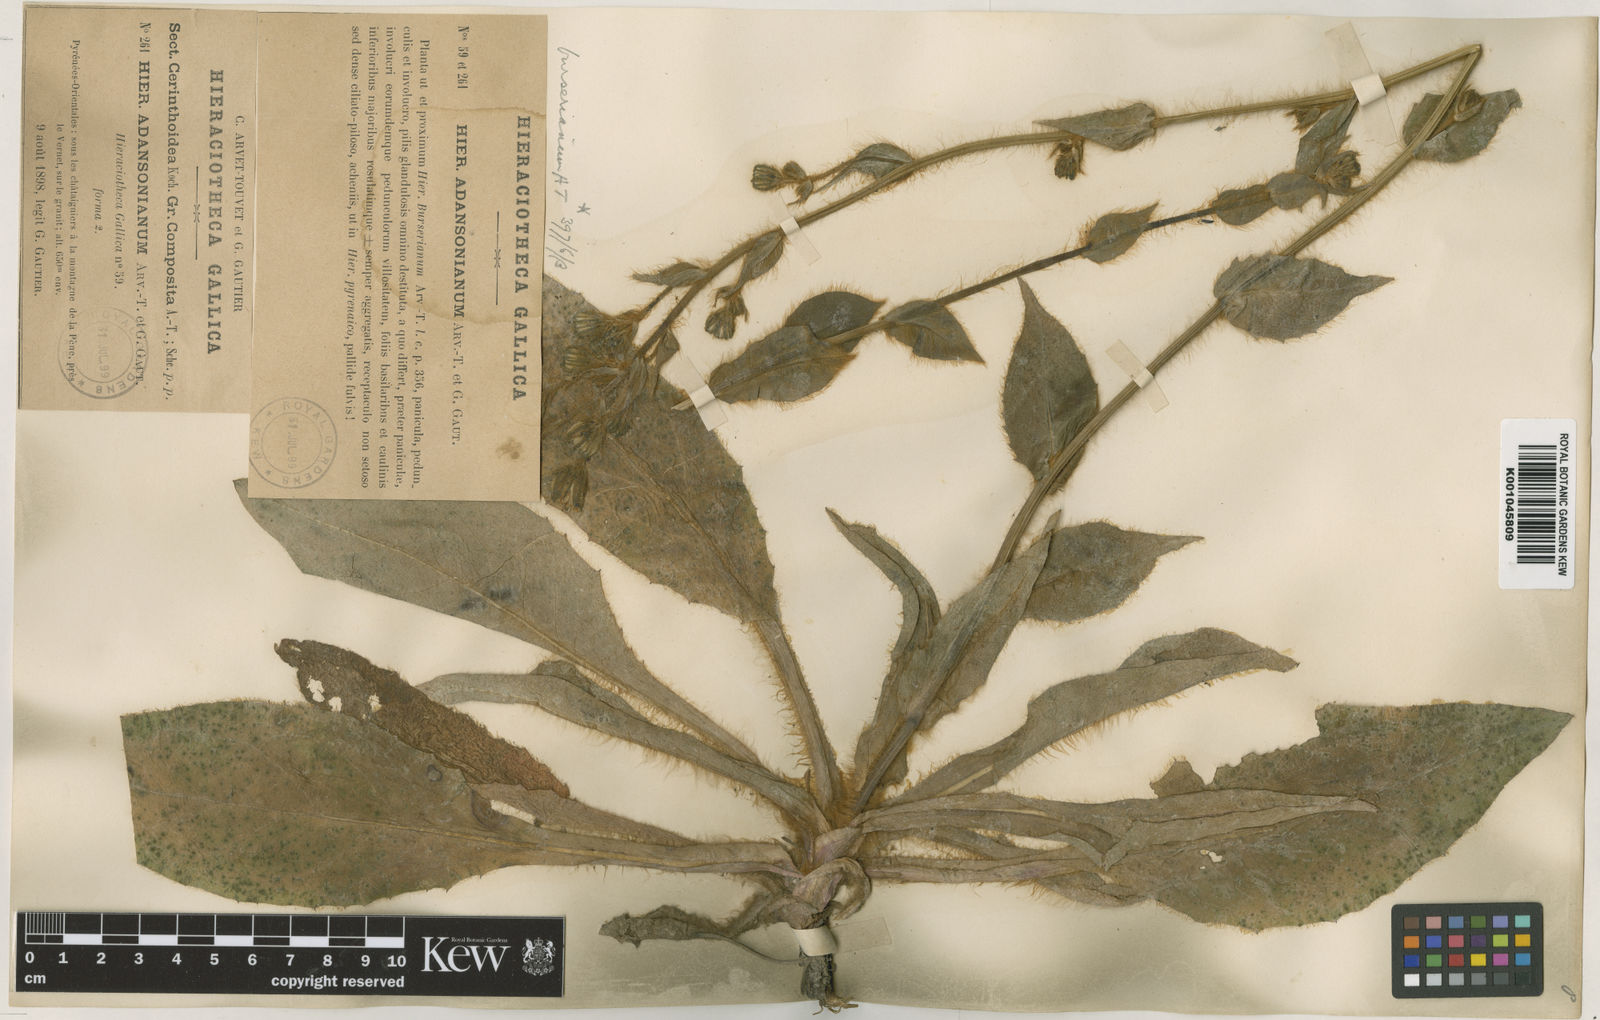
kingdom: Plantae
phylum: Tracheophyta
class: Magnoliopsida
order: Asterales
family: Asteraceae
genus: Hieracium
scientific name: Hieracium nobile
